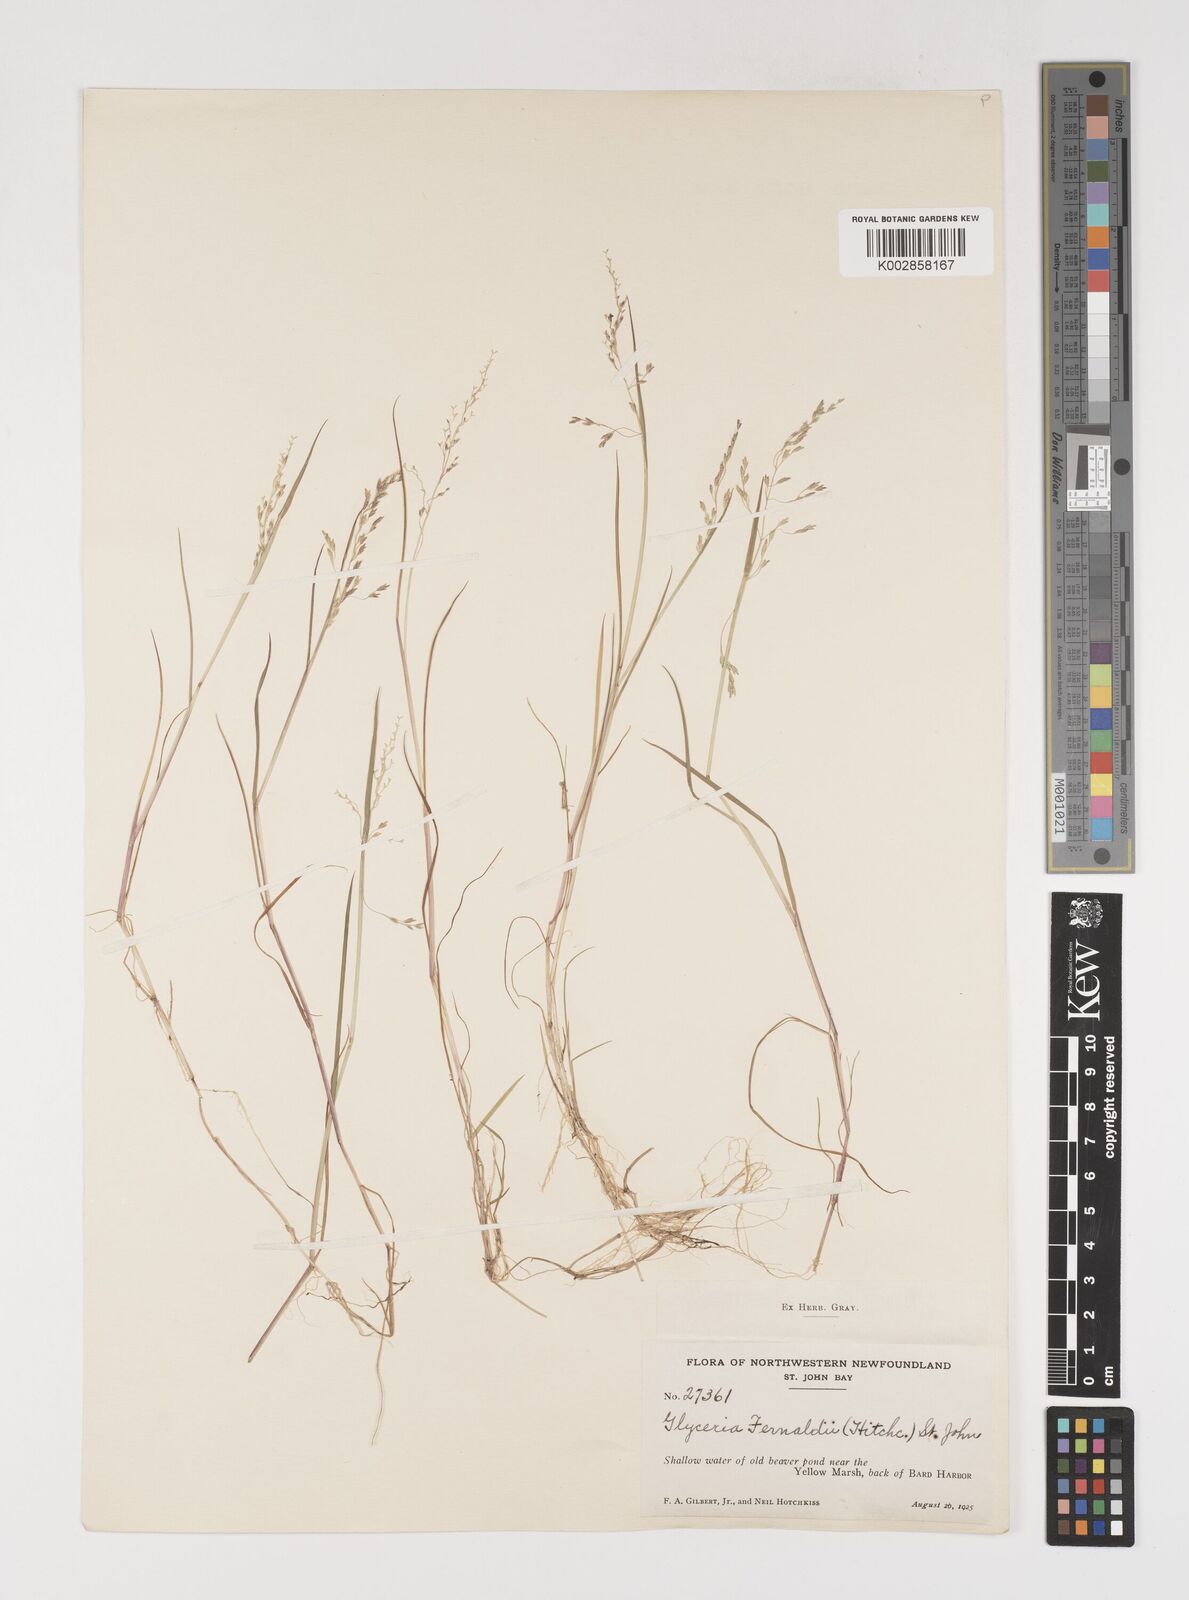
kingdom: Plantae
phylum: Tracheophyta
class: Liliopsida
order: Poales
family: Poaceae
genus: Torreyochloa
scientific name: Torreyochloa pallida
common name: Pale false mannagrass
